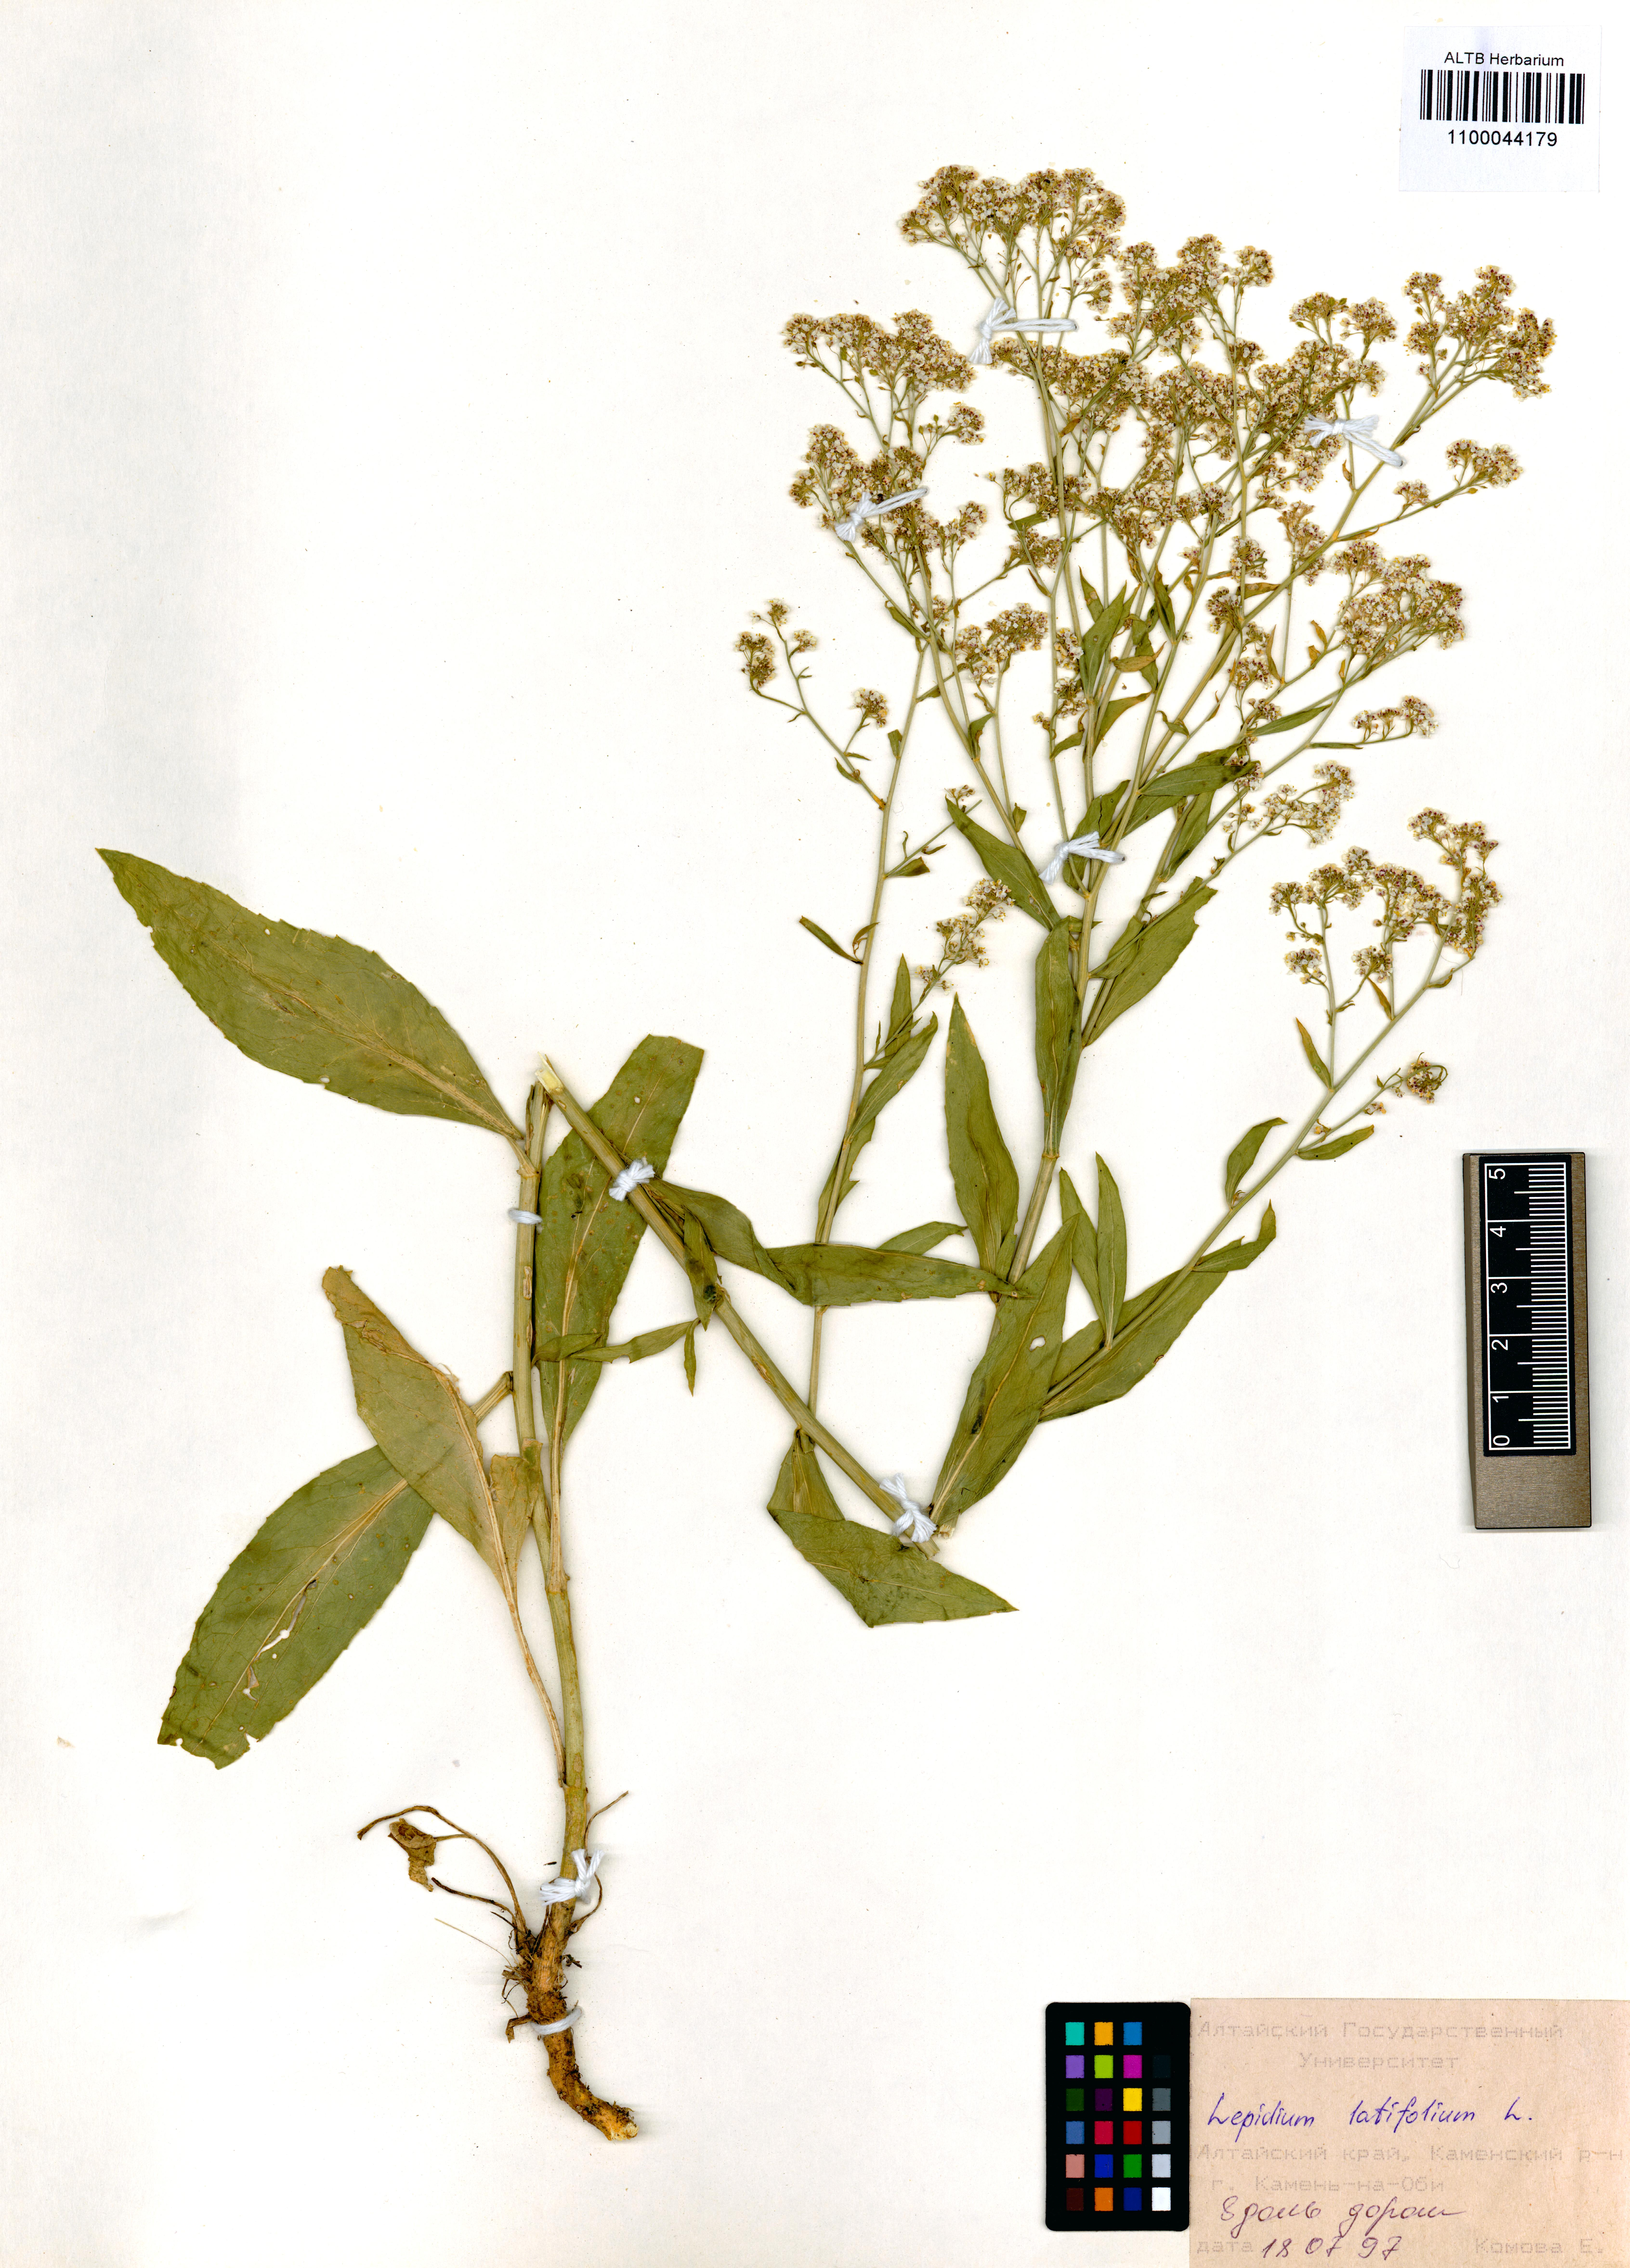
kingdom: Plantae
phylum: Tracheophyta
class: Magnoliopsida
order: Brassicales
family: Brassicaceae
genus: Lepidium
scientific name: Lepidium latifolium
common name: Dittander
